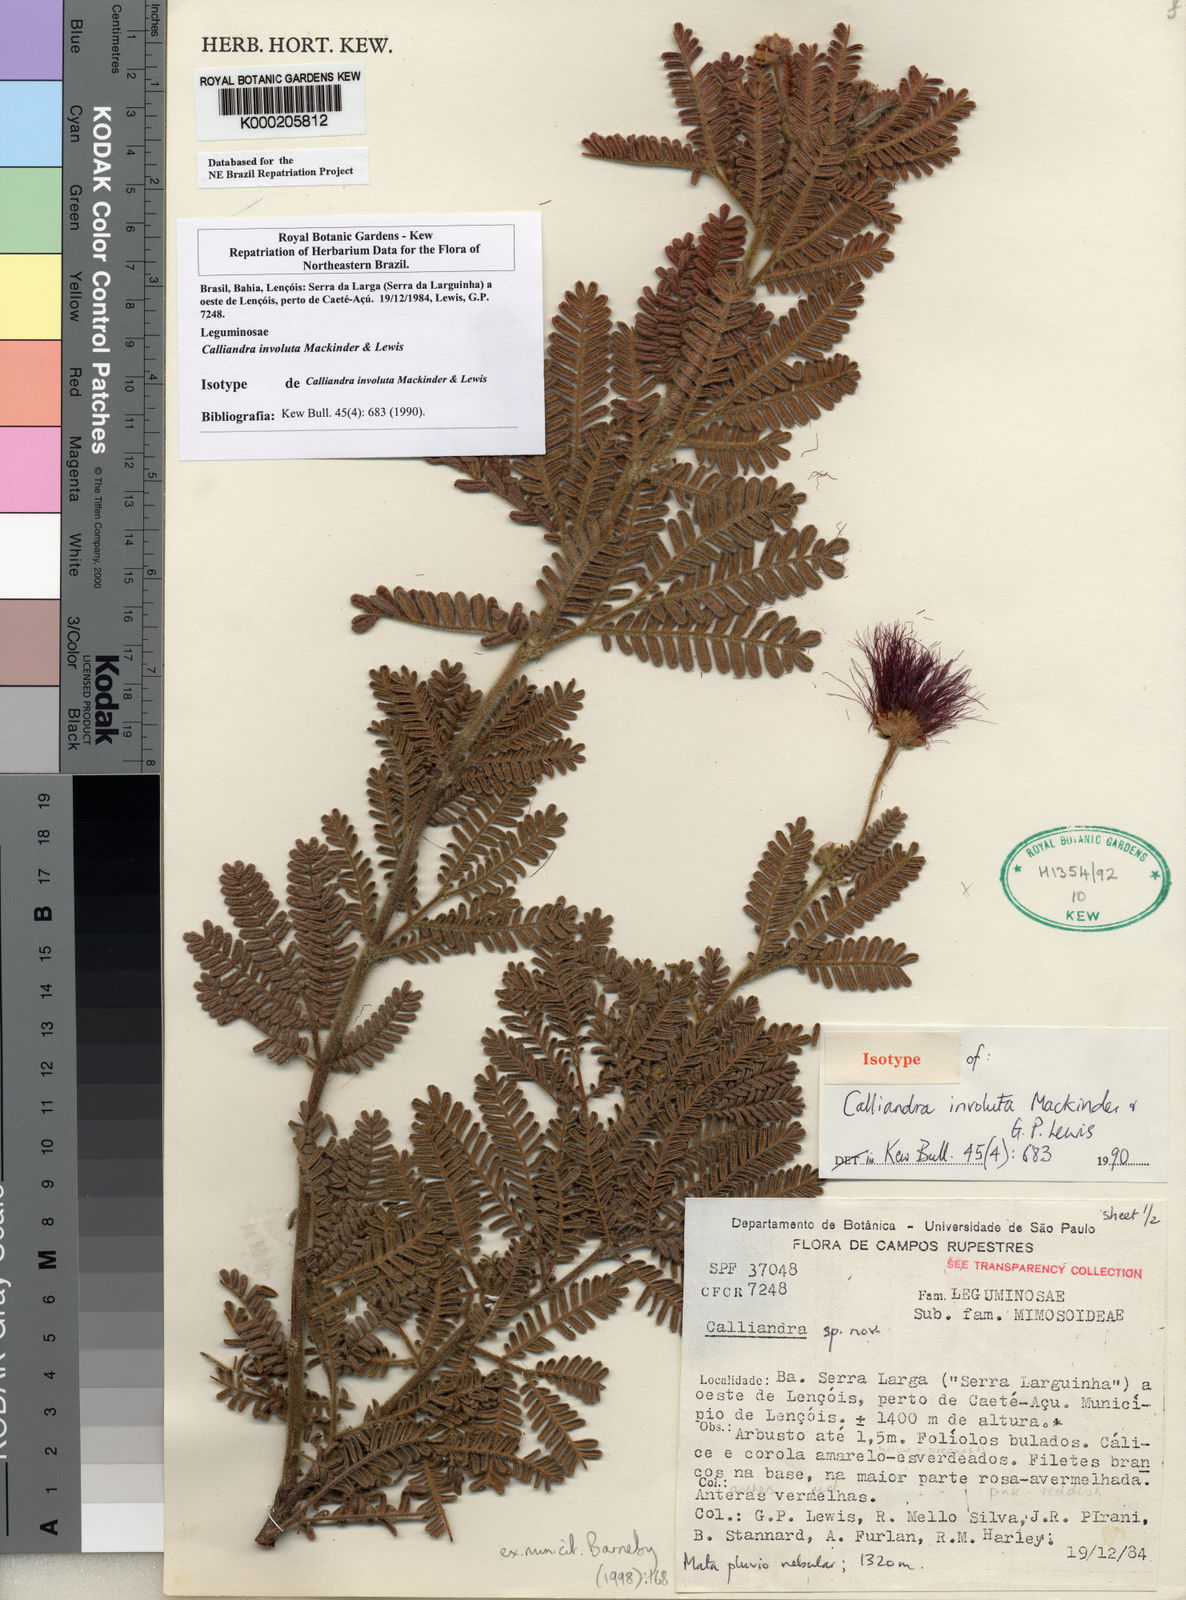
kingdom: Plantae
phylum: Tracheophyta
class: Magnoliopsida
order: Fabales
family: Fabaceae
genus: Calliandra
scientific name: Calliandra involuta
